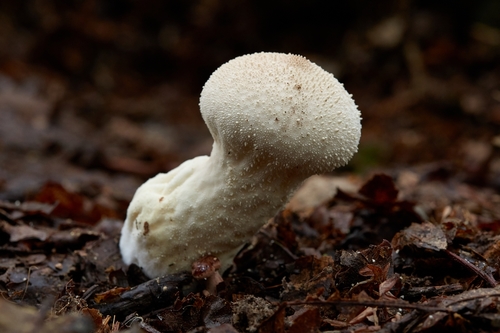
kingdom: Fungi
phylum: Basidiomycota
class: Agaricomycetes
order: Agaricales
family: Lycoperdaceae
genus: Lycoperdon
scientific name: Lycoperdon perlatum
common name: Common puffball
